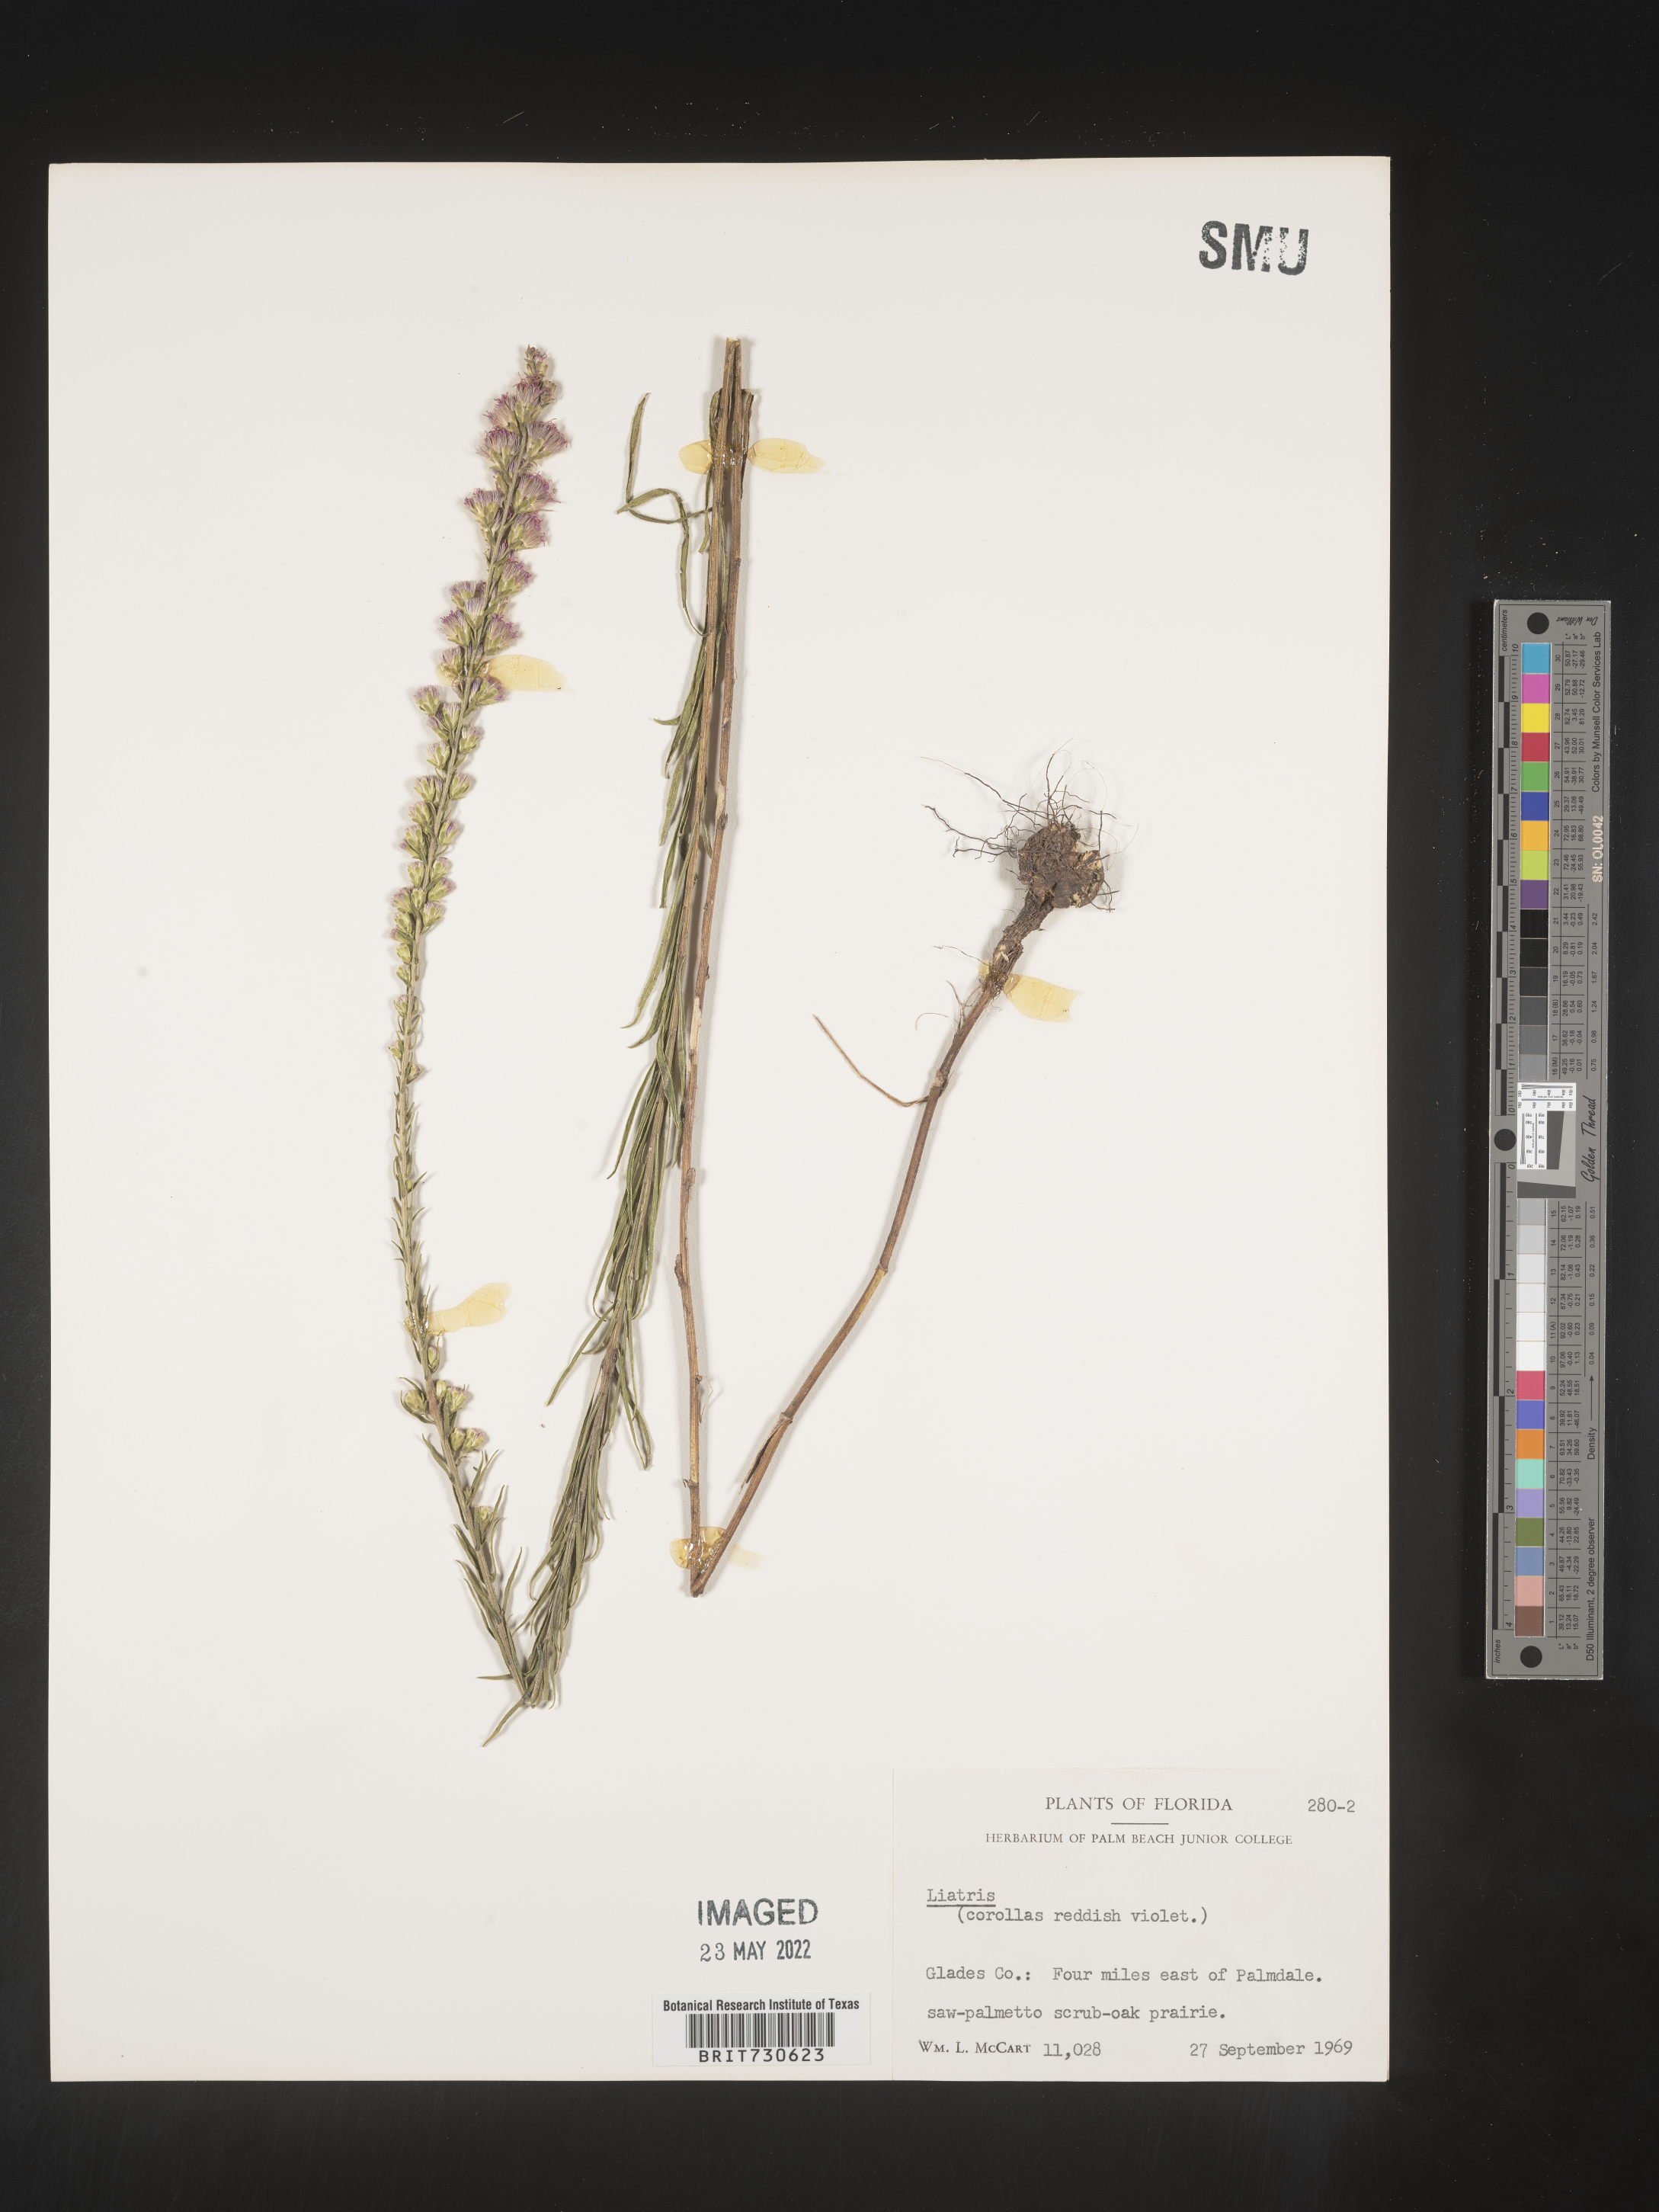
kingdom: Plantae
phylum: Tracheophyta
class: Magnoliopsida
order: Asterales
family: Asteraceae
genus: Liatris
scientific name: Liatris gracilis
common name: Slender gayfeather
